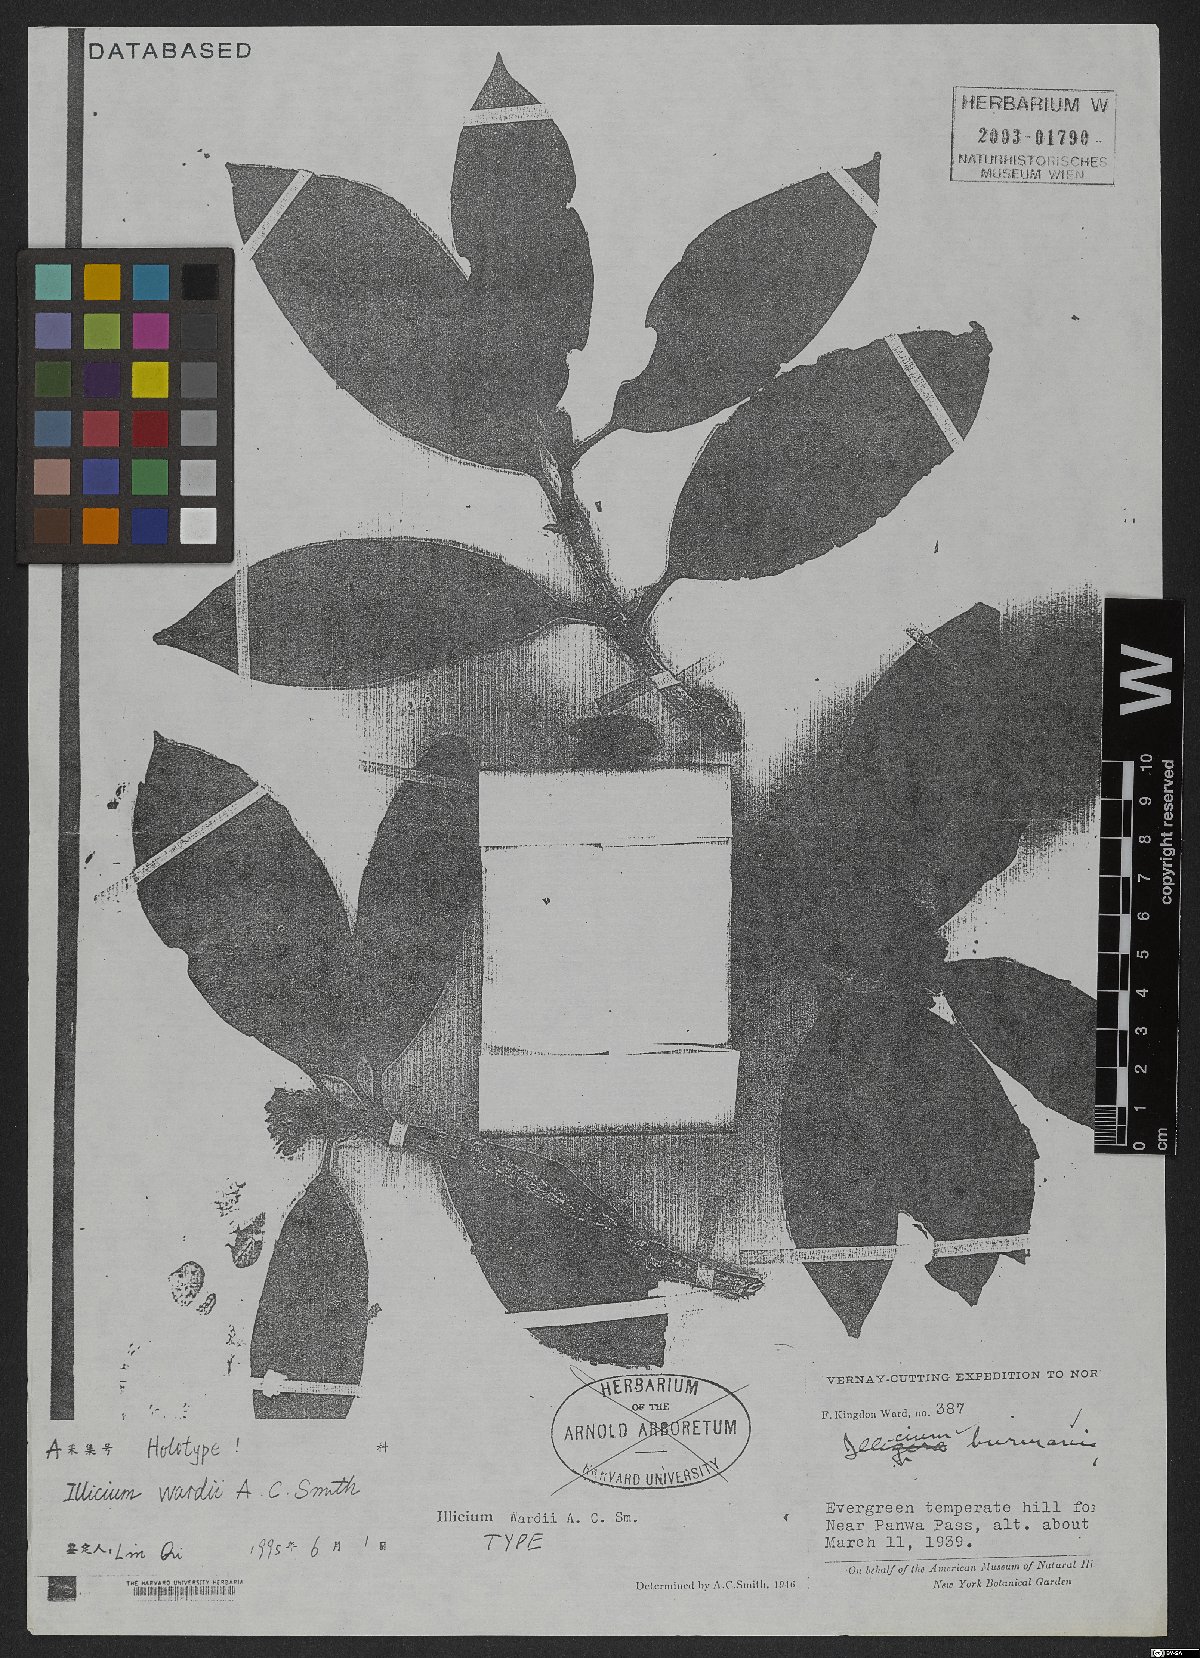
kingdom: Plantae
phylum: Tracheophyta
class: Magnoliopsida
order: Austrobaileyales
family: Schisandraceae
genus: Illicium
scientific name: Illicium wardii
